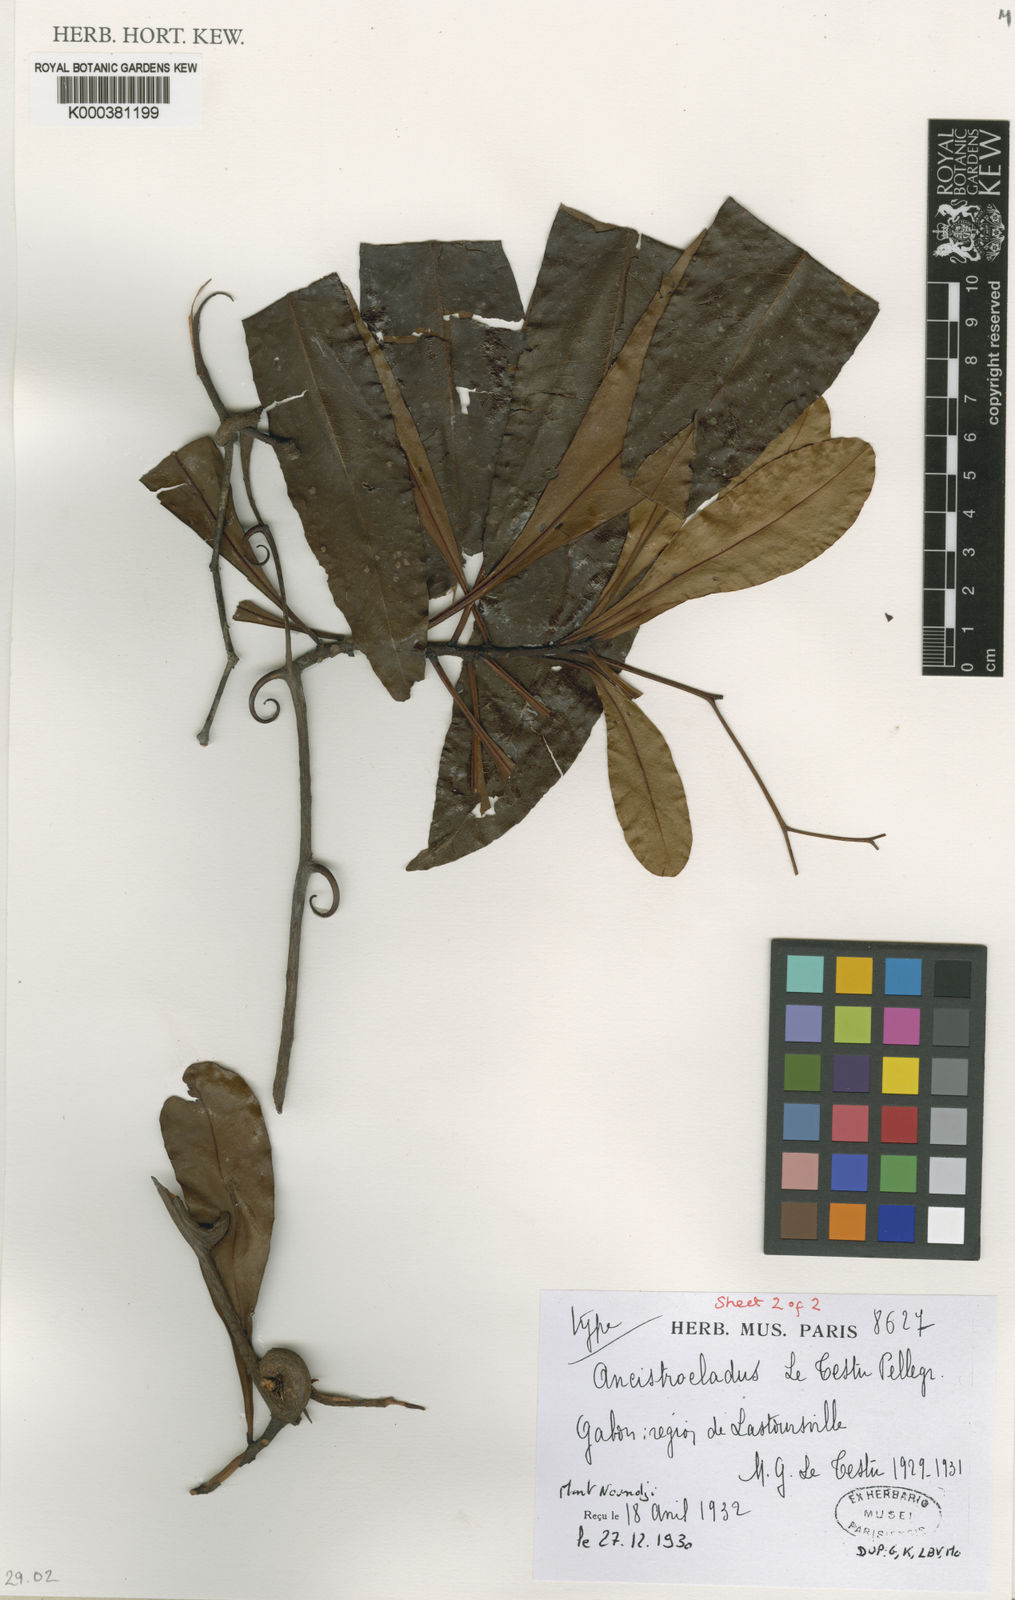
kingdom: Plantae
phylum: Tracheophyta
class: Magnoliopsida
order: Caryophyllales
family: Ancistrocladaceae
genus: Ancistrocladus
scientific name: Ancistrocladus letestui
